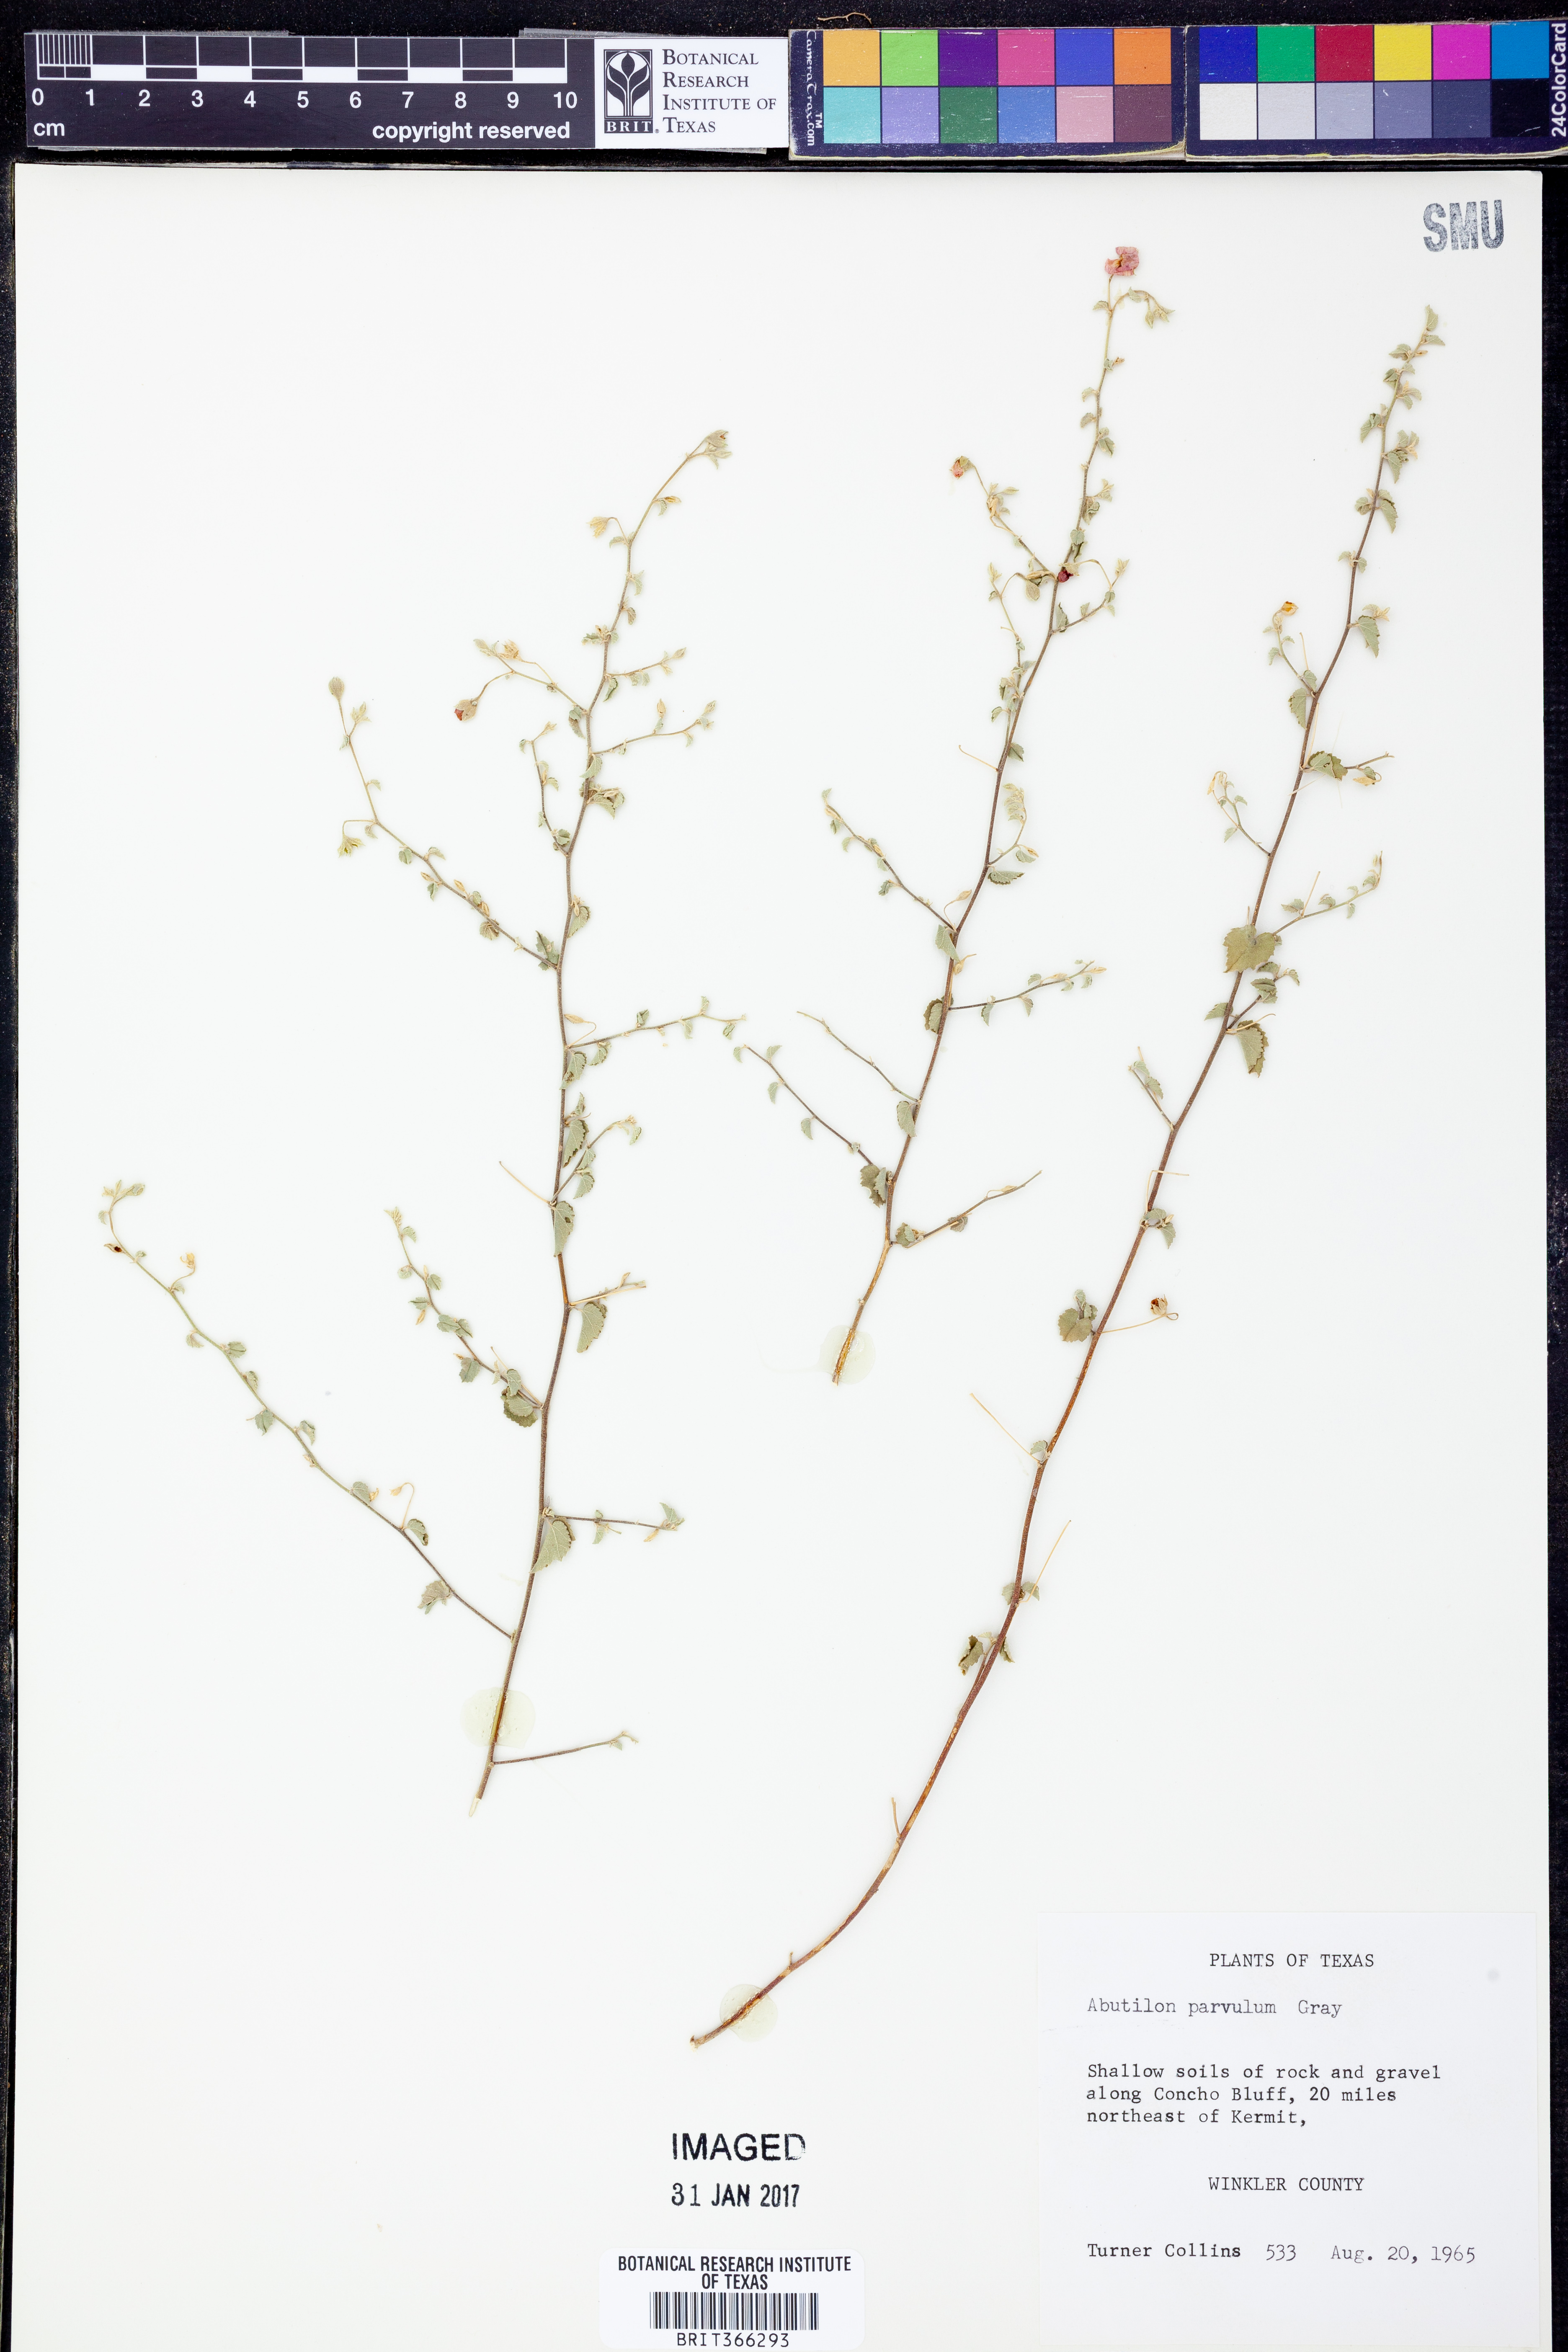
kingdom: Plantae
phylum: Tracheophyta
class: Magnoliopsida
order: Malvales
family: Malvaceae
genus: Abutilon
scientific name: Abutilon parvulum
